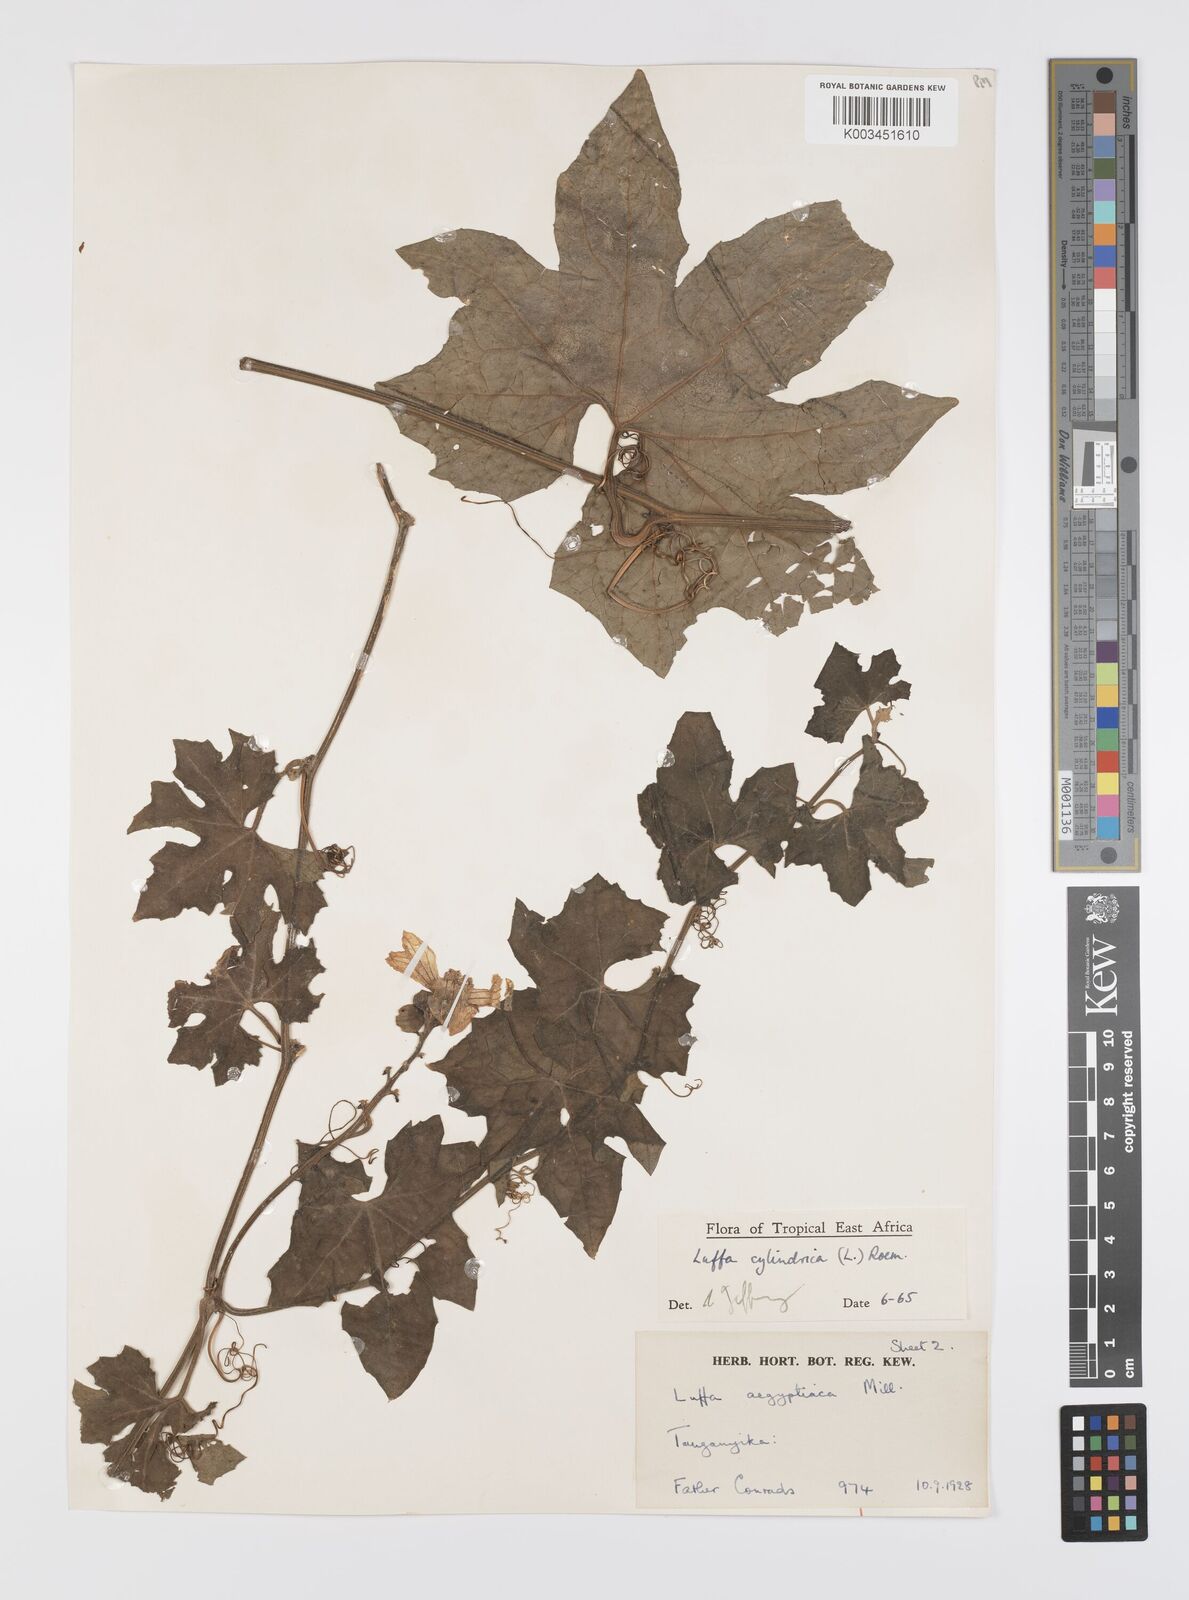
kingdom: Plantae
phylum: Tracheophyta
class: Magnoliopsida
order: Cucurbitales
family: Cucurbitaceae
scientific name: Cucurbitaceae
